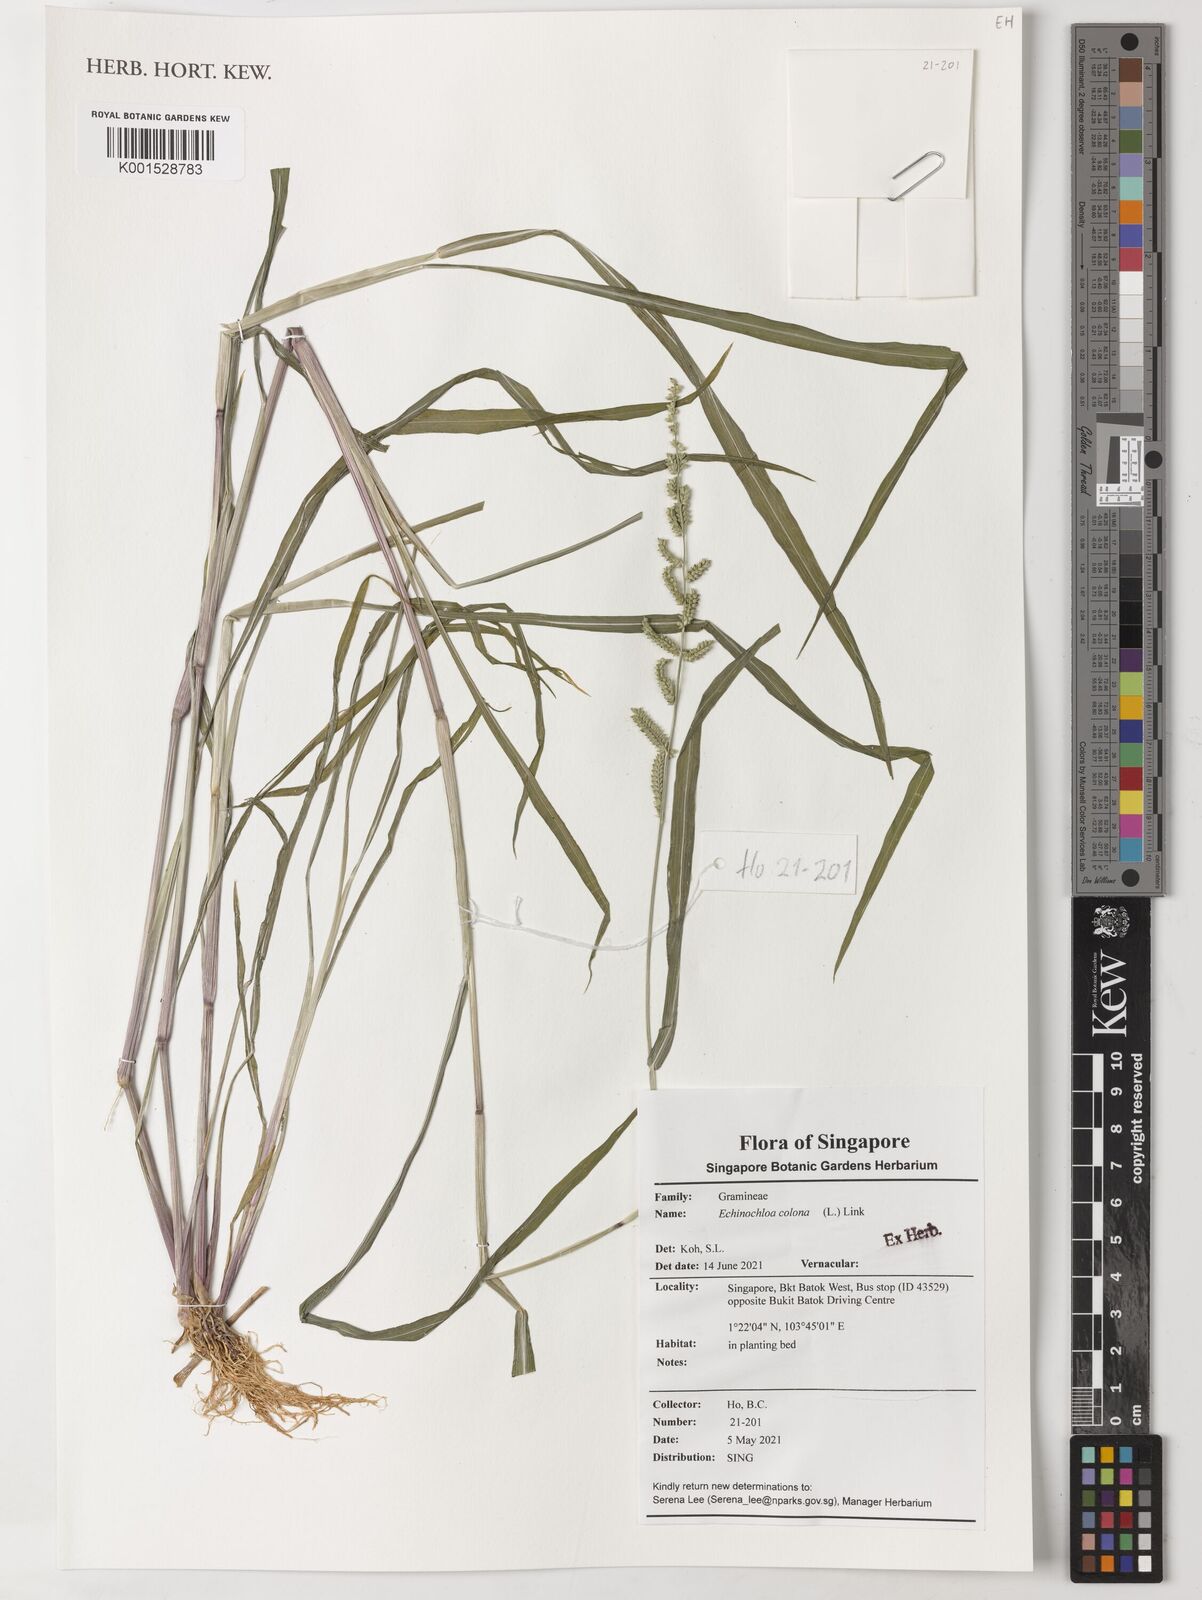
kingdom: Plantae
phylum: Tracheophyta
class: Liliopsida
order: Poales
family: Poaceae
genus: Echinochloa
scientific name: Echinochloa colonum
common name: Jungle rice
